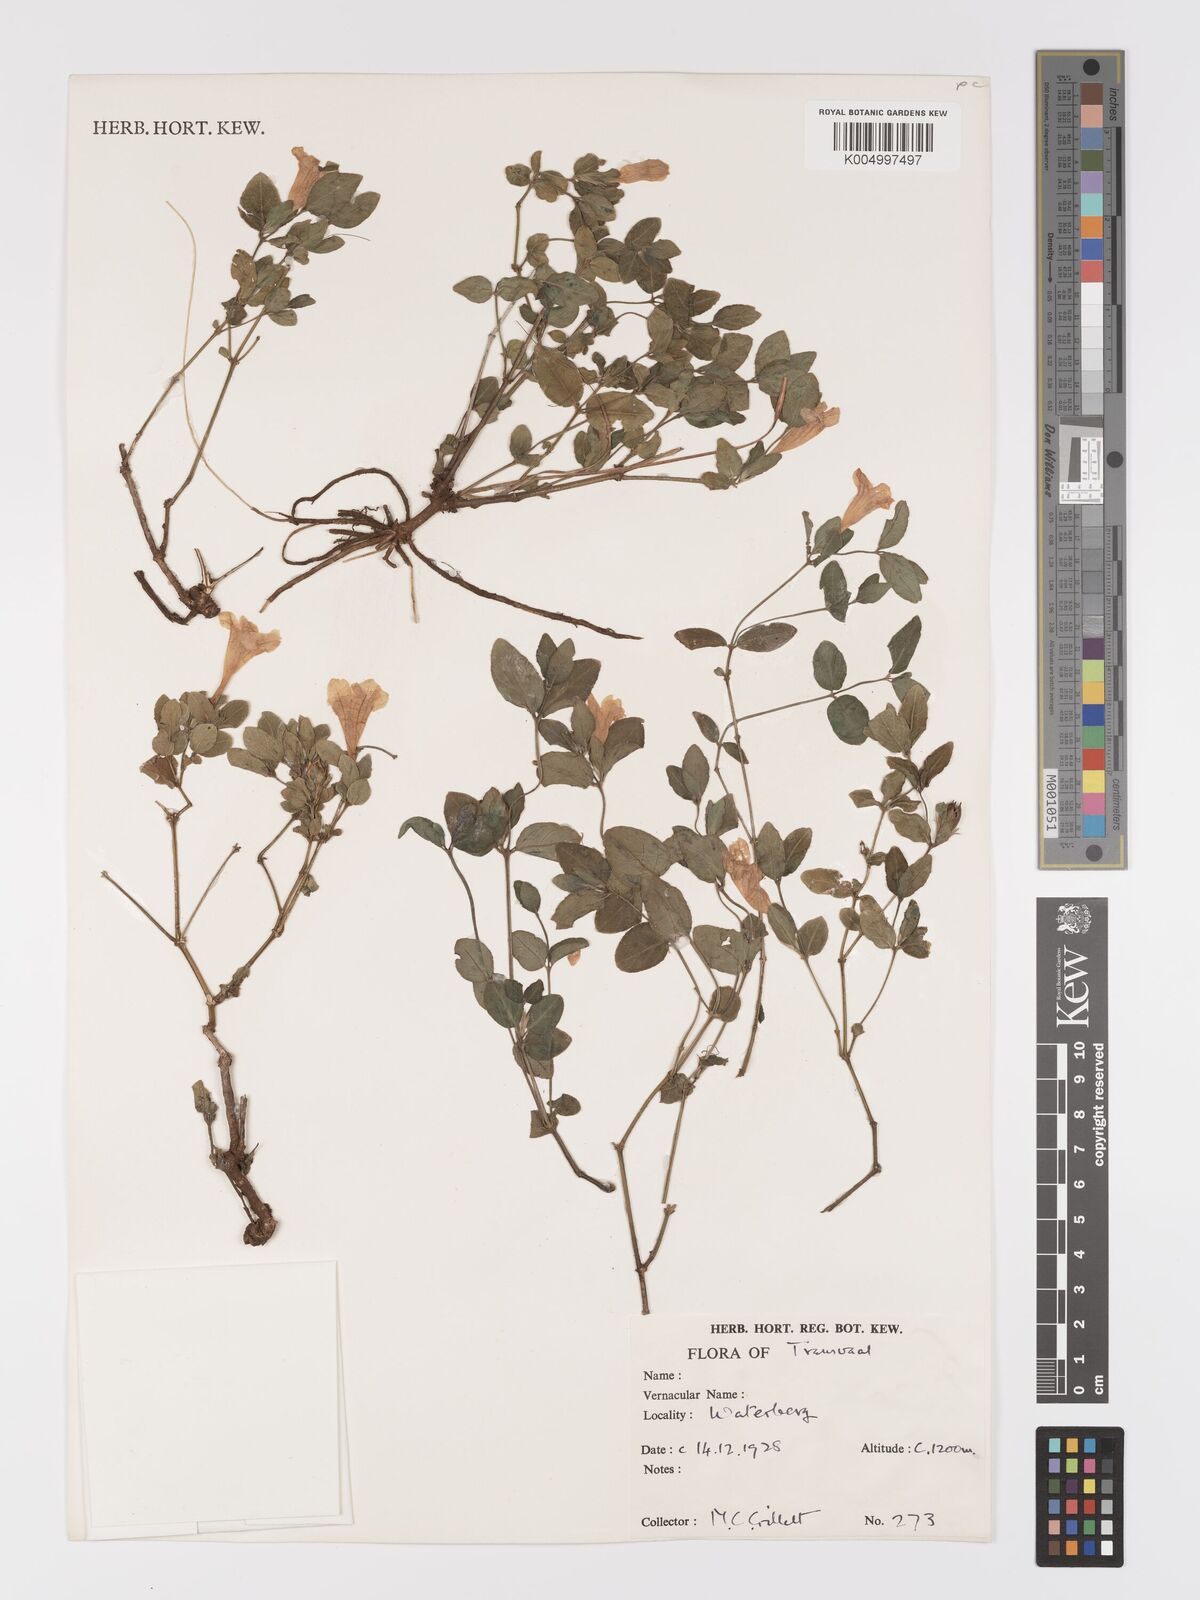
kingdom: Plantae
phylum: Tracheophyta
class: Magnoliopsida
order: Lamiales
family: Acanthaceae
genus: Ruellia
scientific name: Ruellia cordata
